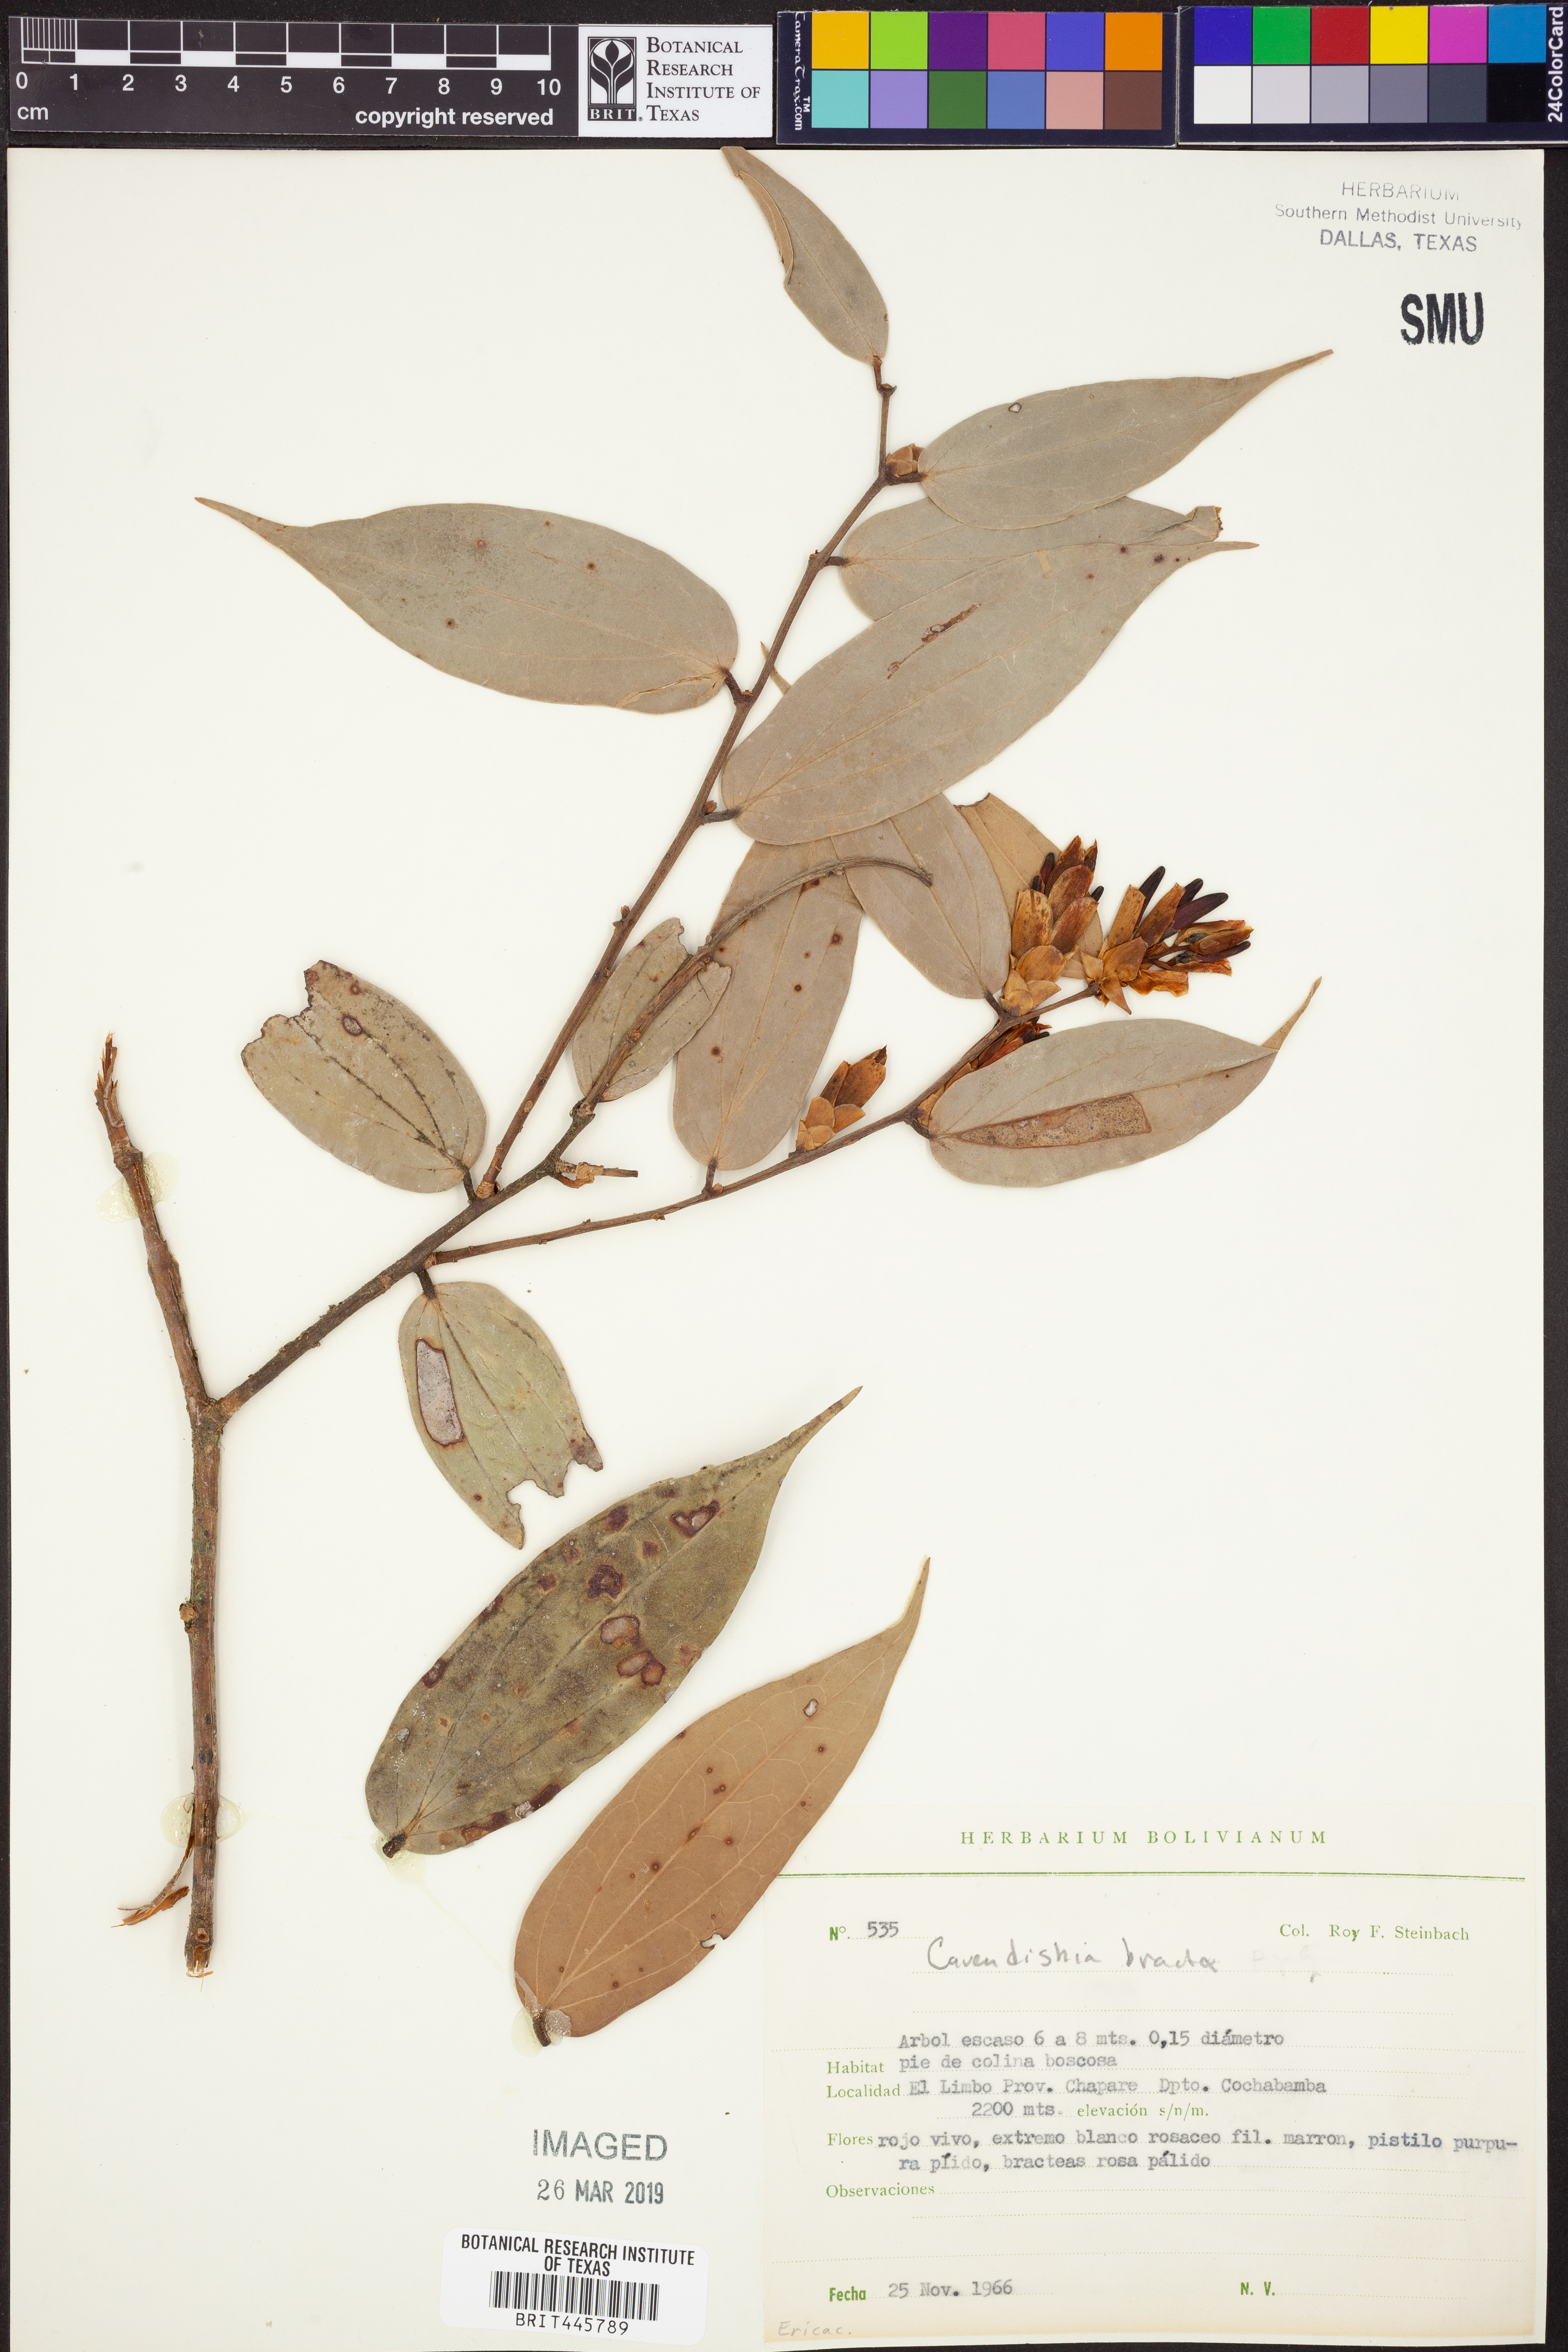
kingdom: Plantae
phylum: Tracheophyta
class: Magnoliopsida
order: Ericales
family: Ericaceae
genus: Cavendishia
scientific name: Cavendishia bracteata
